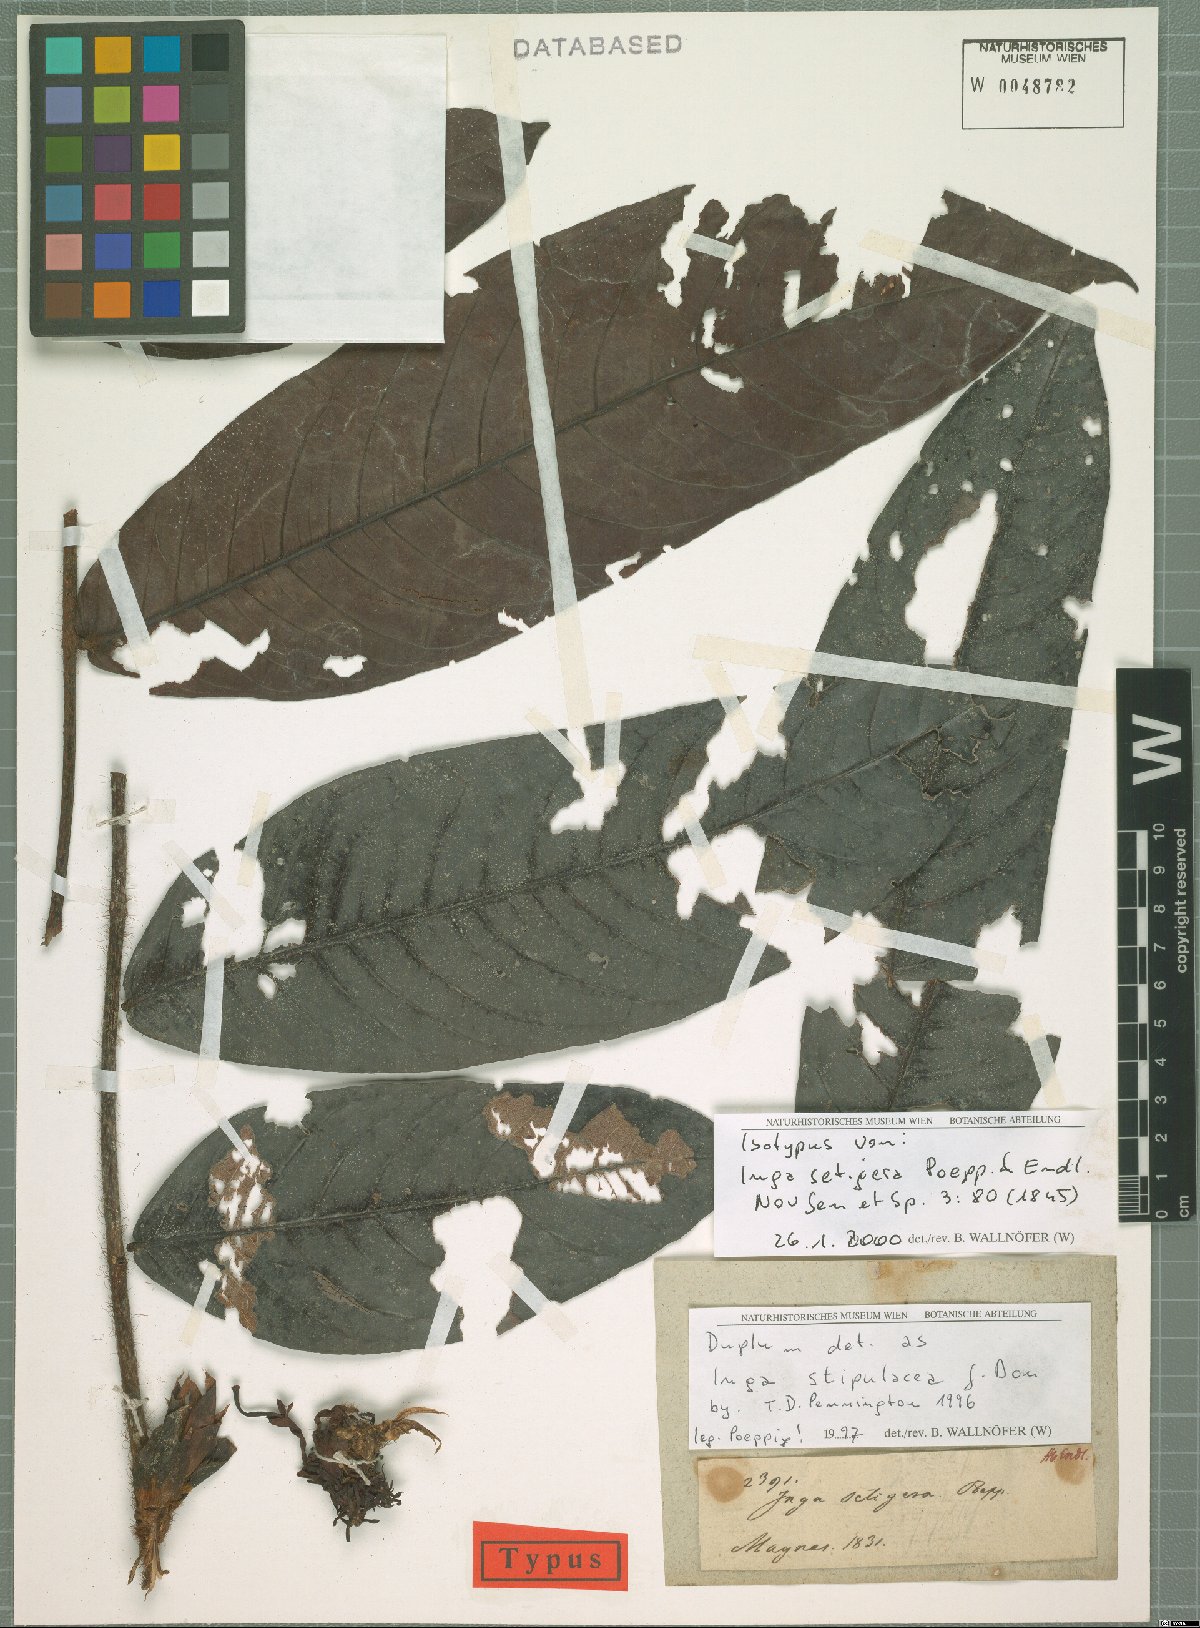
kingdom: Plantae
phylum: Tracheophyta
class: Magnoliopsida
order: Fabales
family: Fabaceae
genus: Inga
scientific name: Inga stipulacea
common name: Stipulate inga
